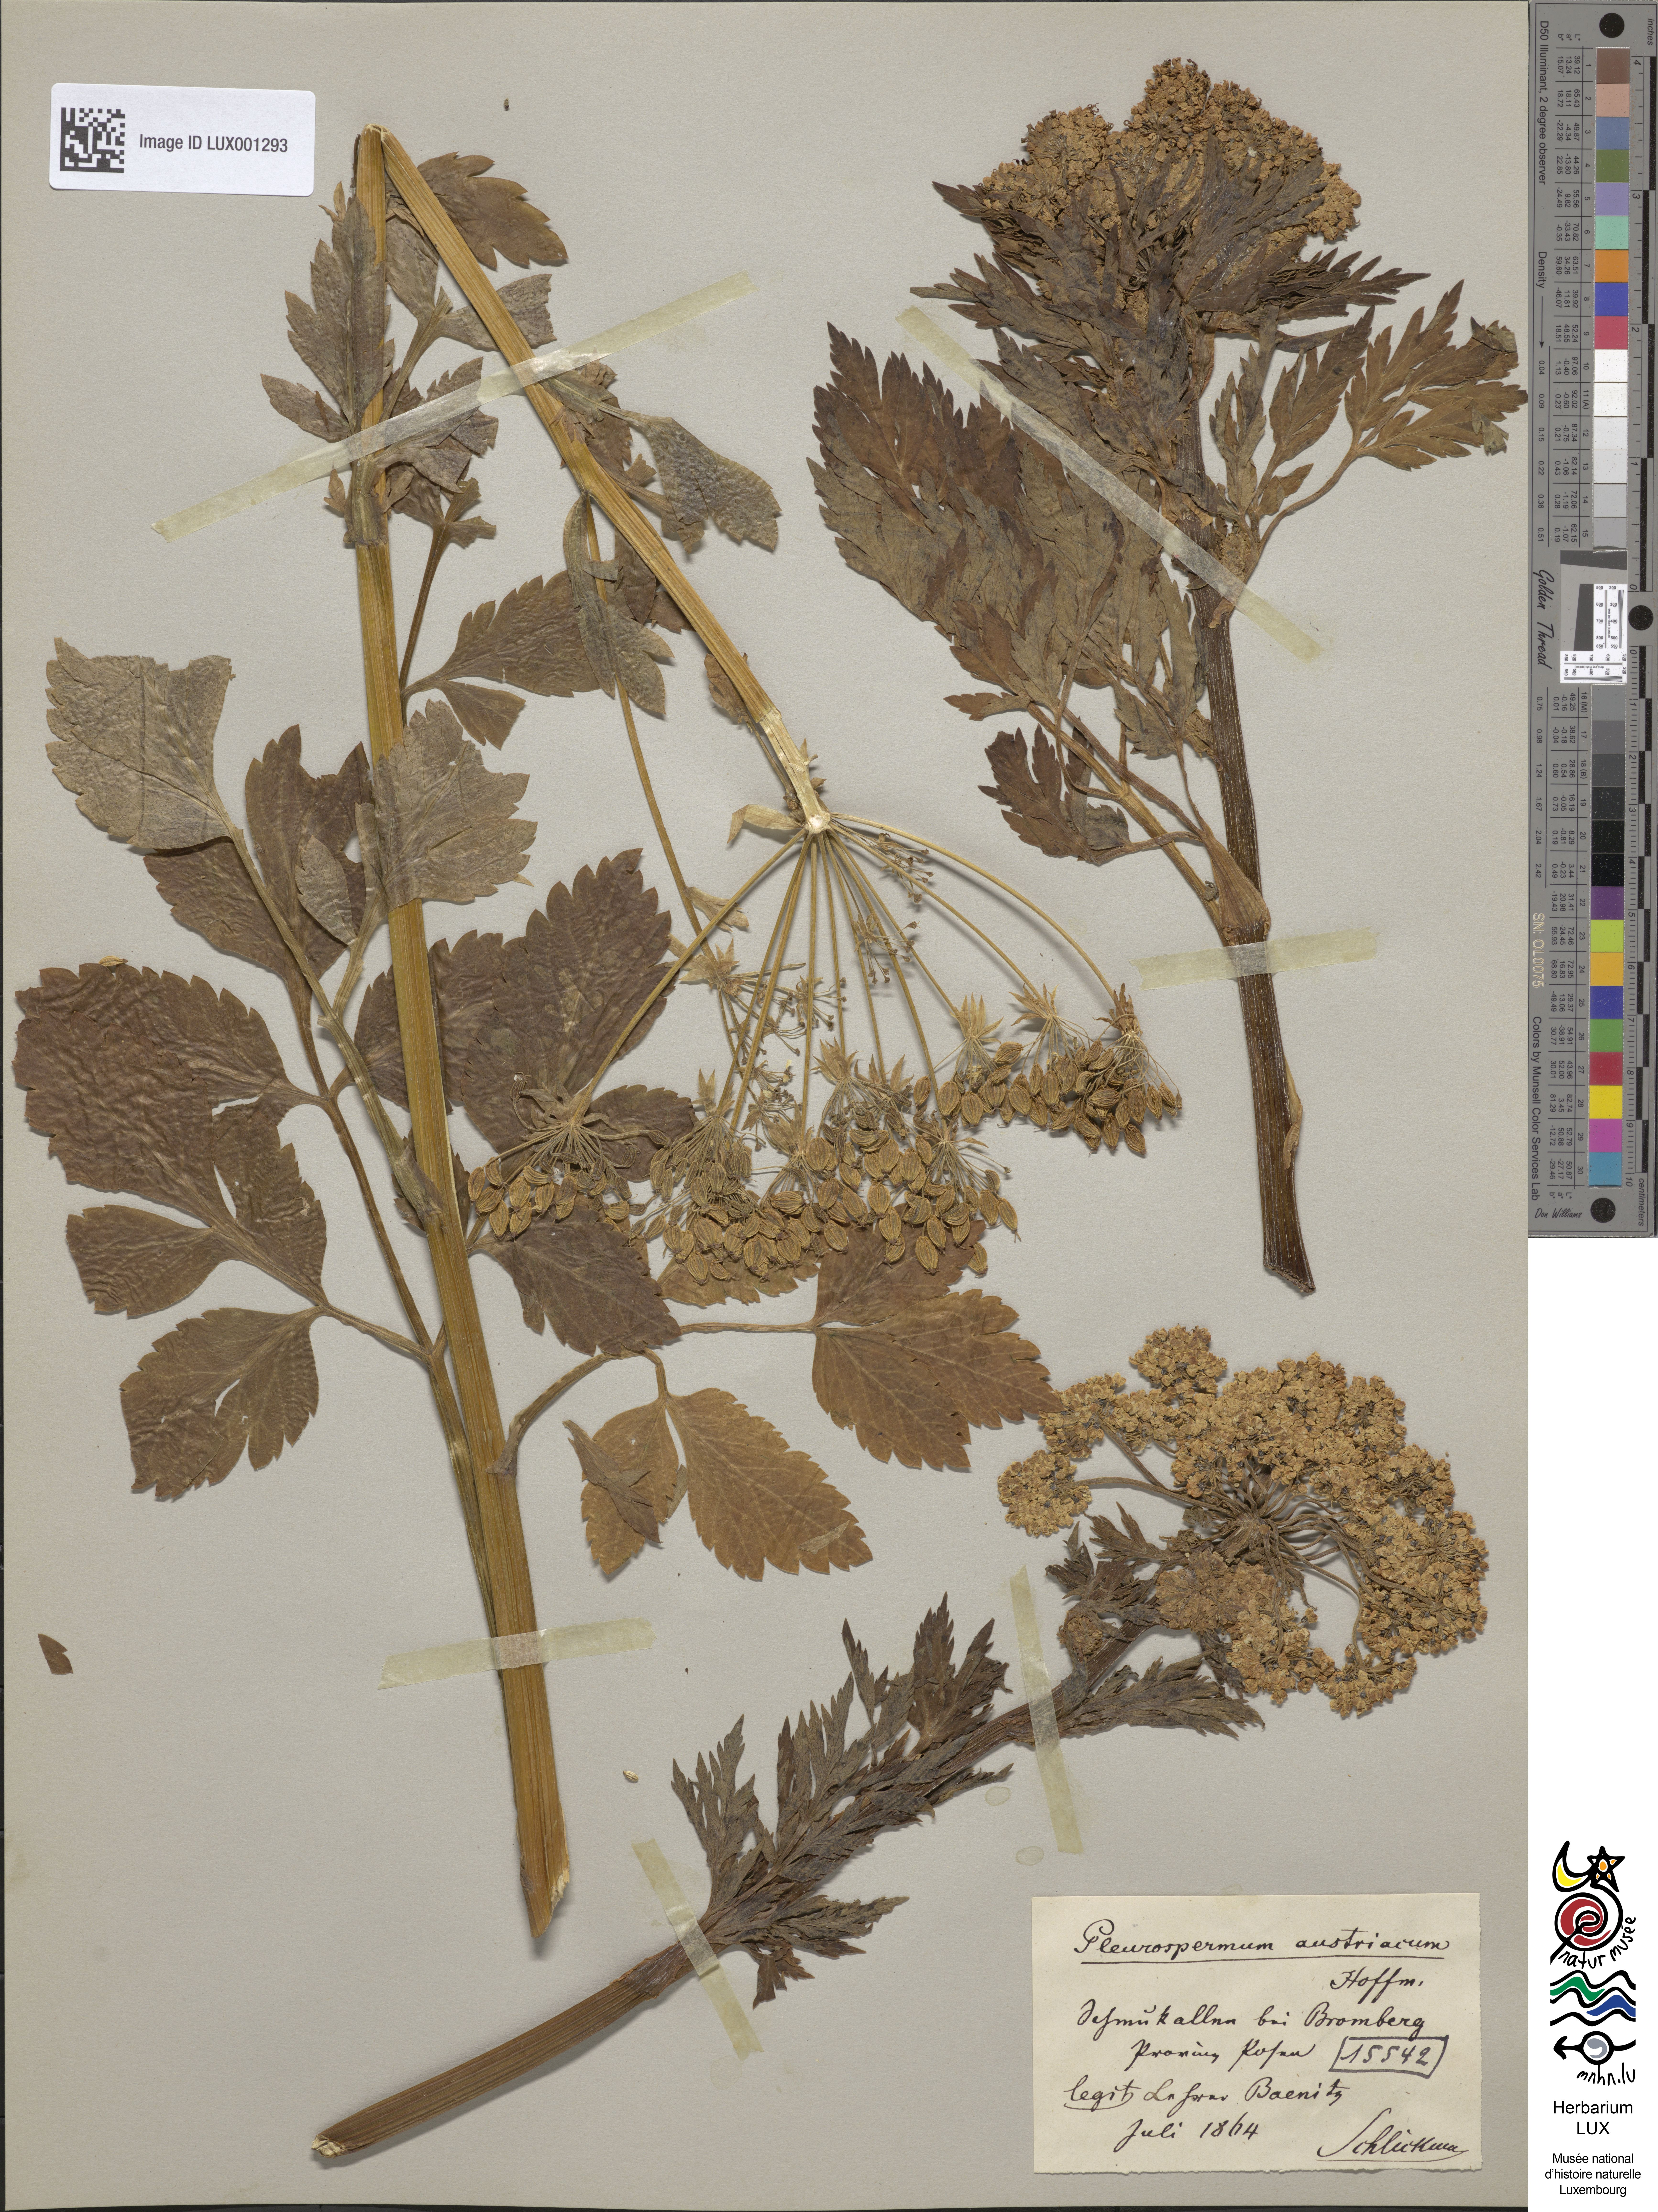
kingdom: Plantae
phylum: Tracheophyta
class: Magnoliopsida
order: Apiales
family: Apiaceae
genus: Pleurospermum
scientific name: Pleurospermum austriacum
